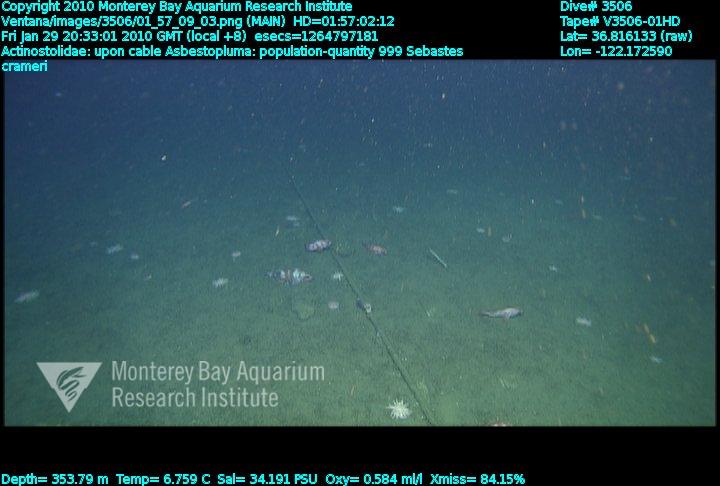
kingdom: Animalia
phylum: Porifera
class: Demospongiae
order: Poecilosclerida
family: Cladorhizidae
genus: Asbestopluma
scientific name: Asbestopluma
